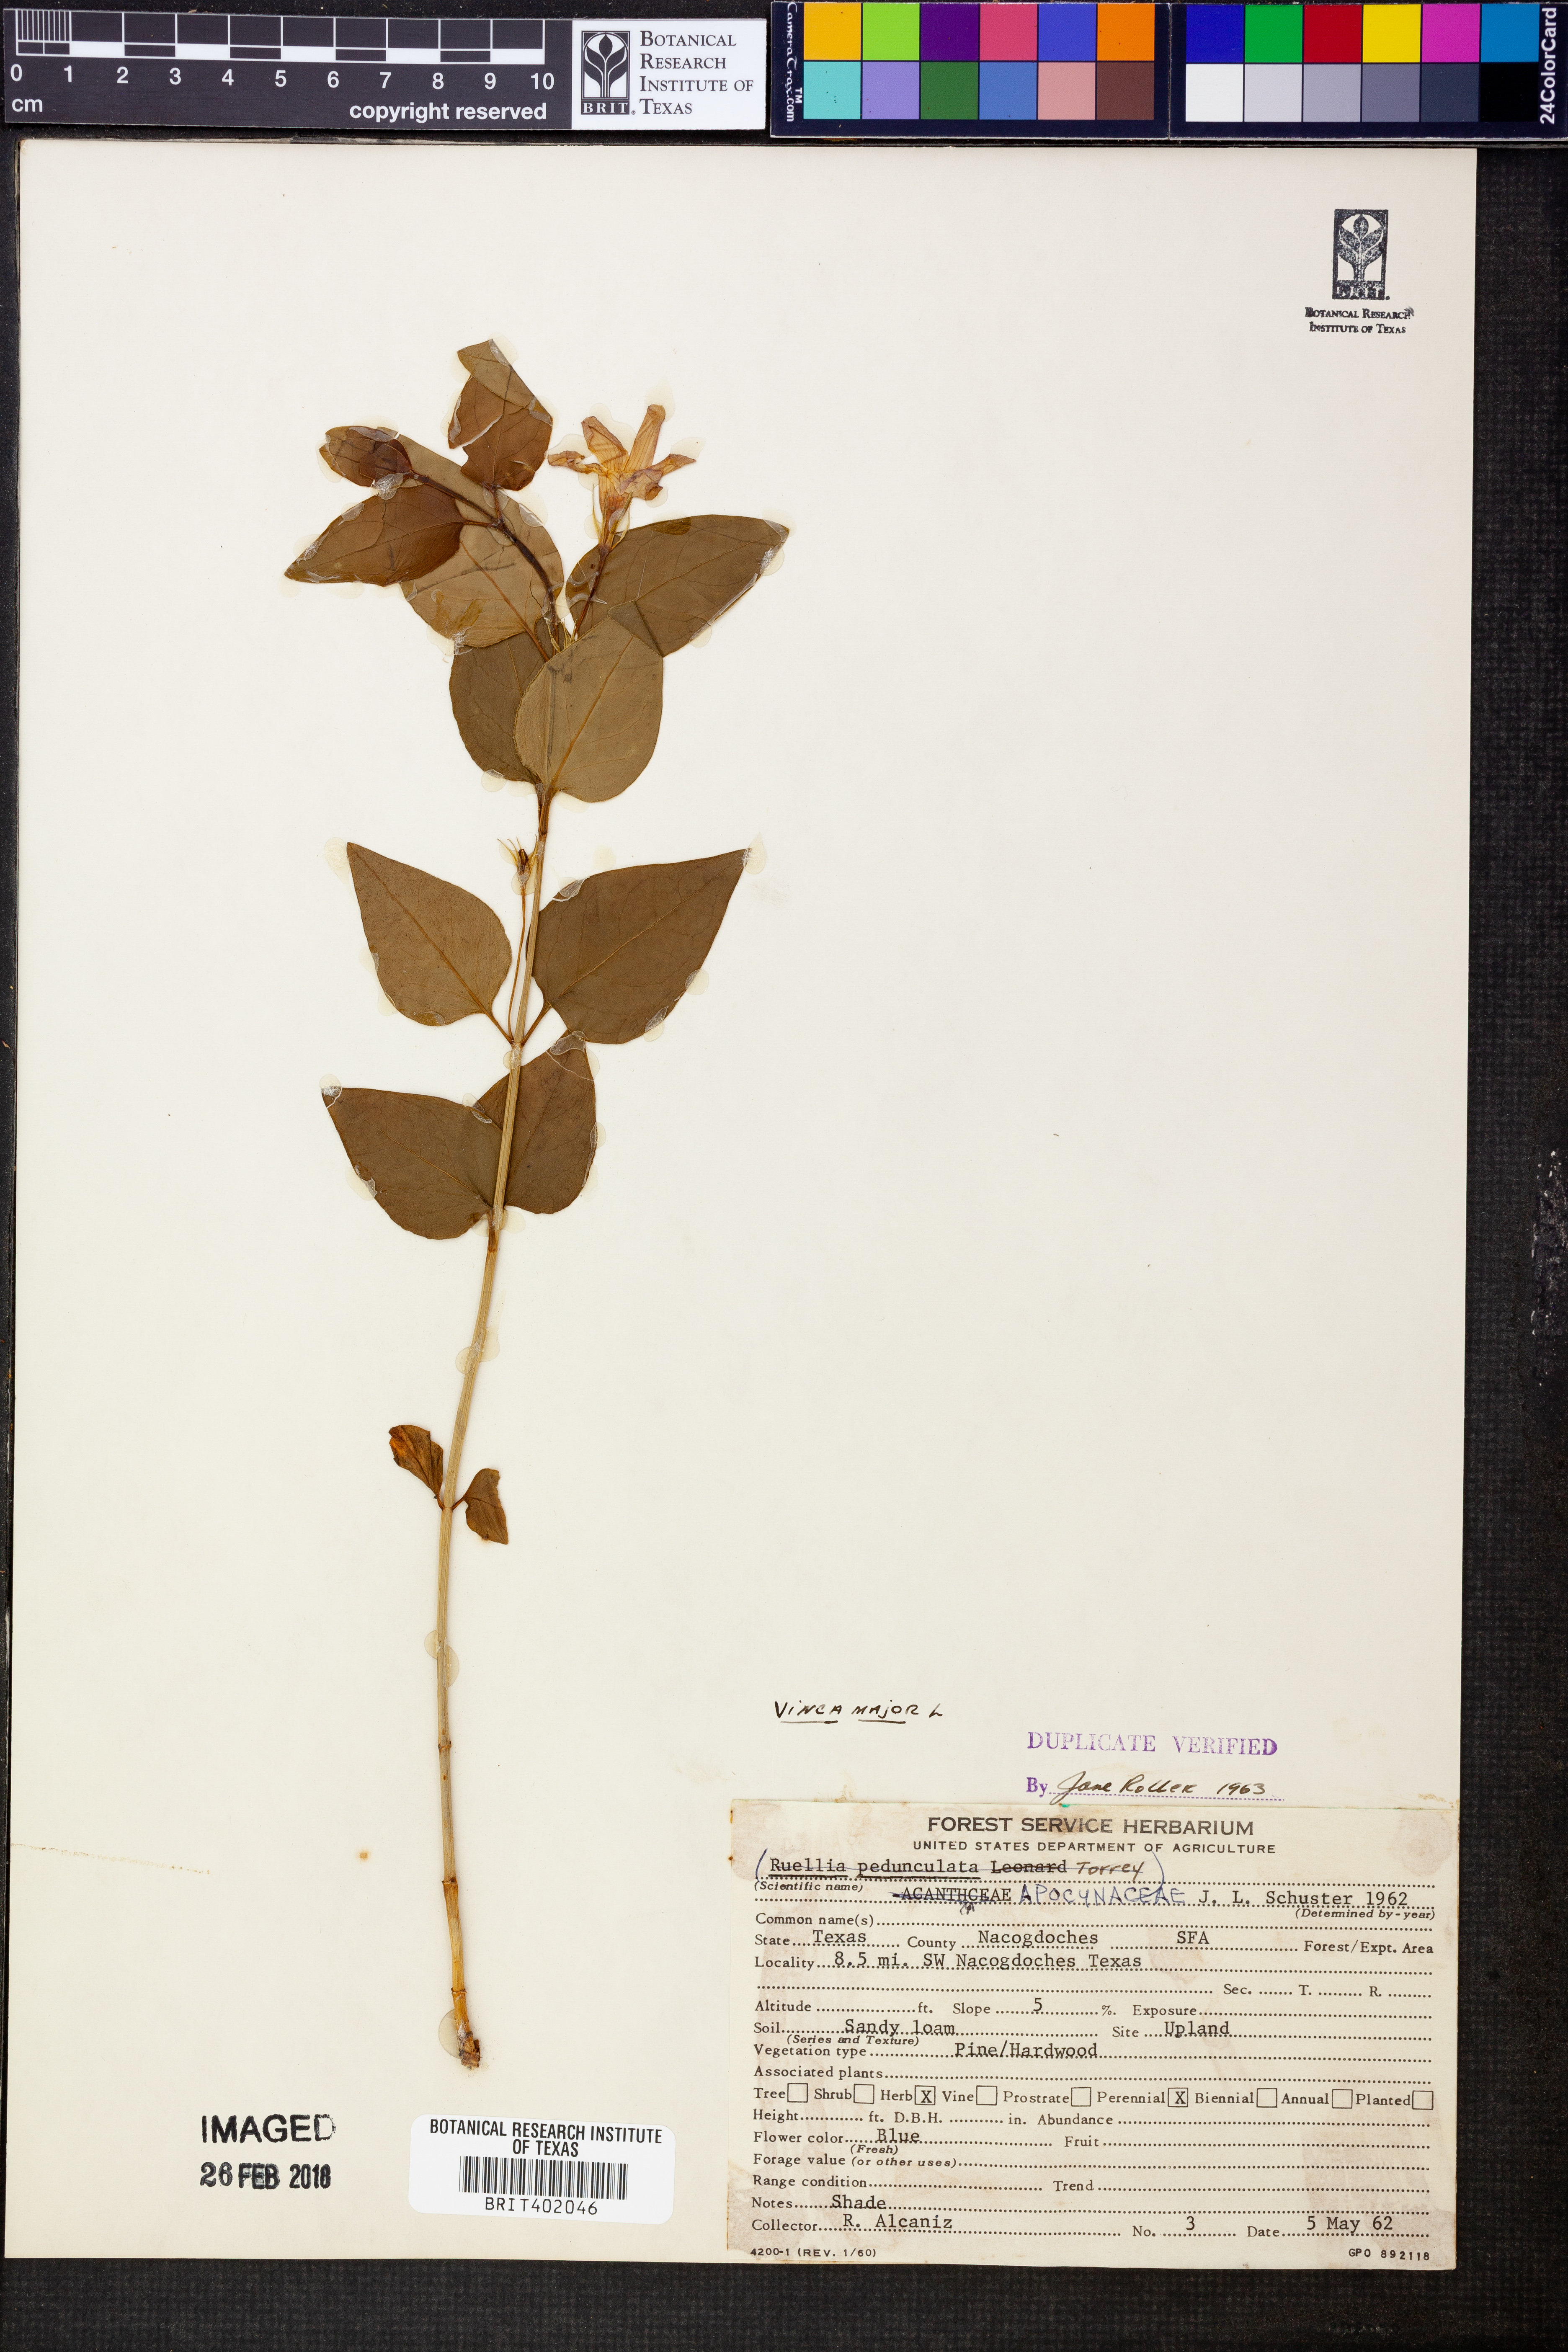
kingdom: Plantae
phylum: Tracheophyta
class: Magnoliopsida
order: Gentianales
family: Apocynaceae
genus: Vinca
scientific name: Vinca major
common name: Greater periwinkle
